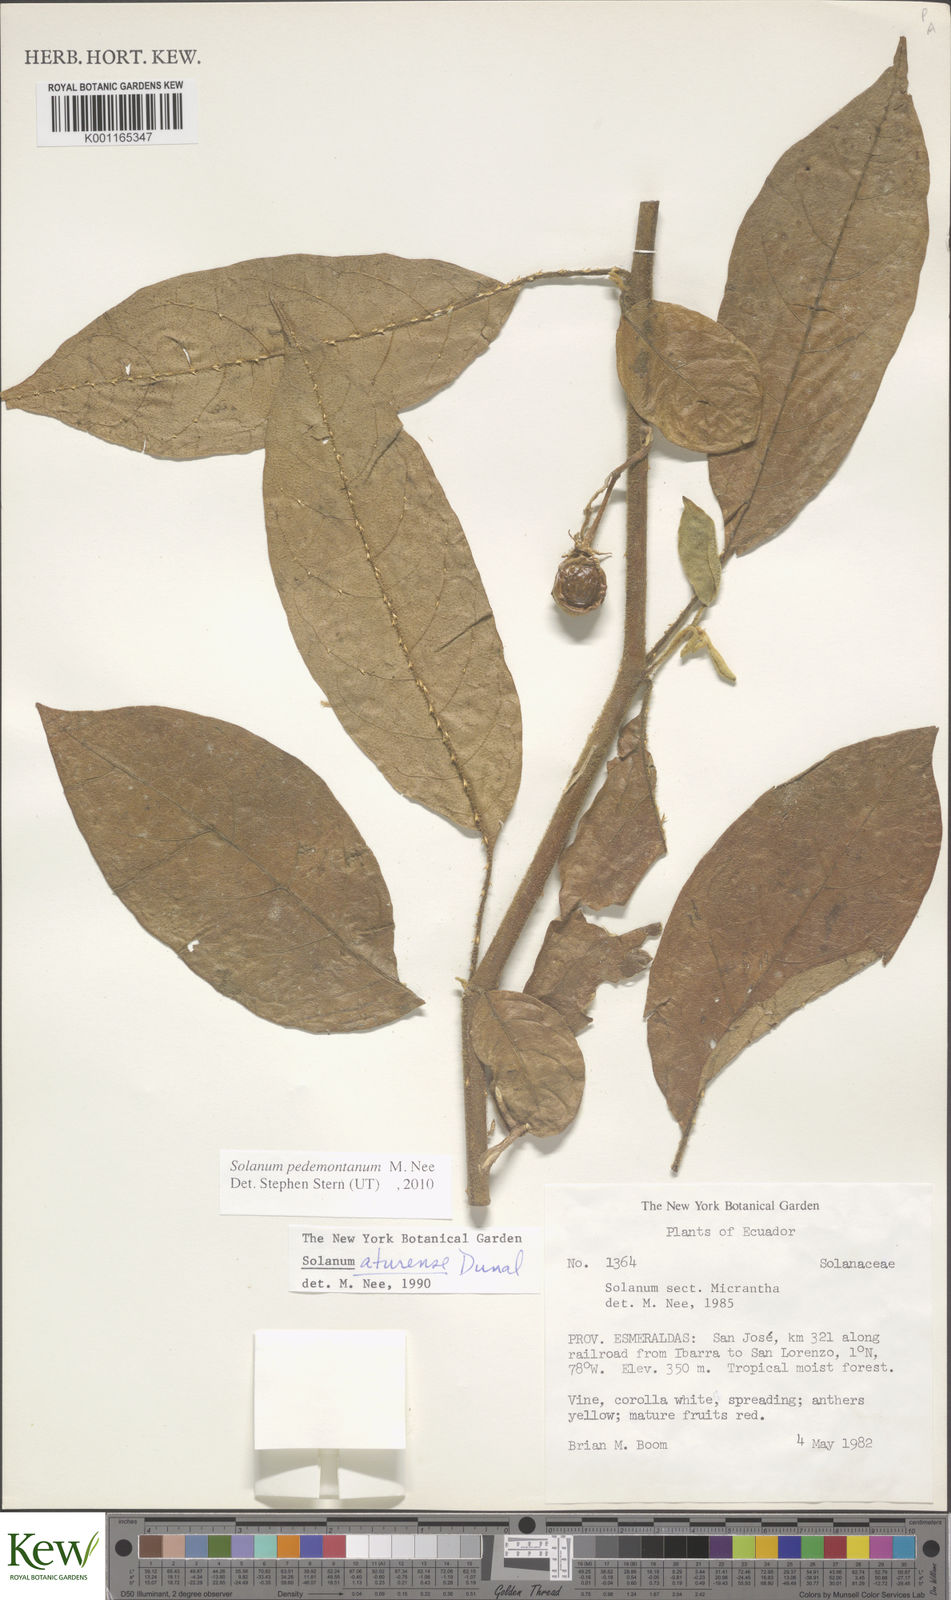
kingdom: Plantae
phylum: Tracheophyta
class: Magnoliopsida
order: Solanales
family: Solanaceae
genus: Solanum
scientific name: Solanum pedemontanum
